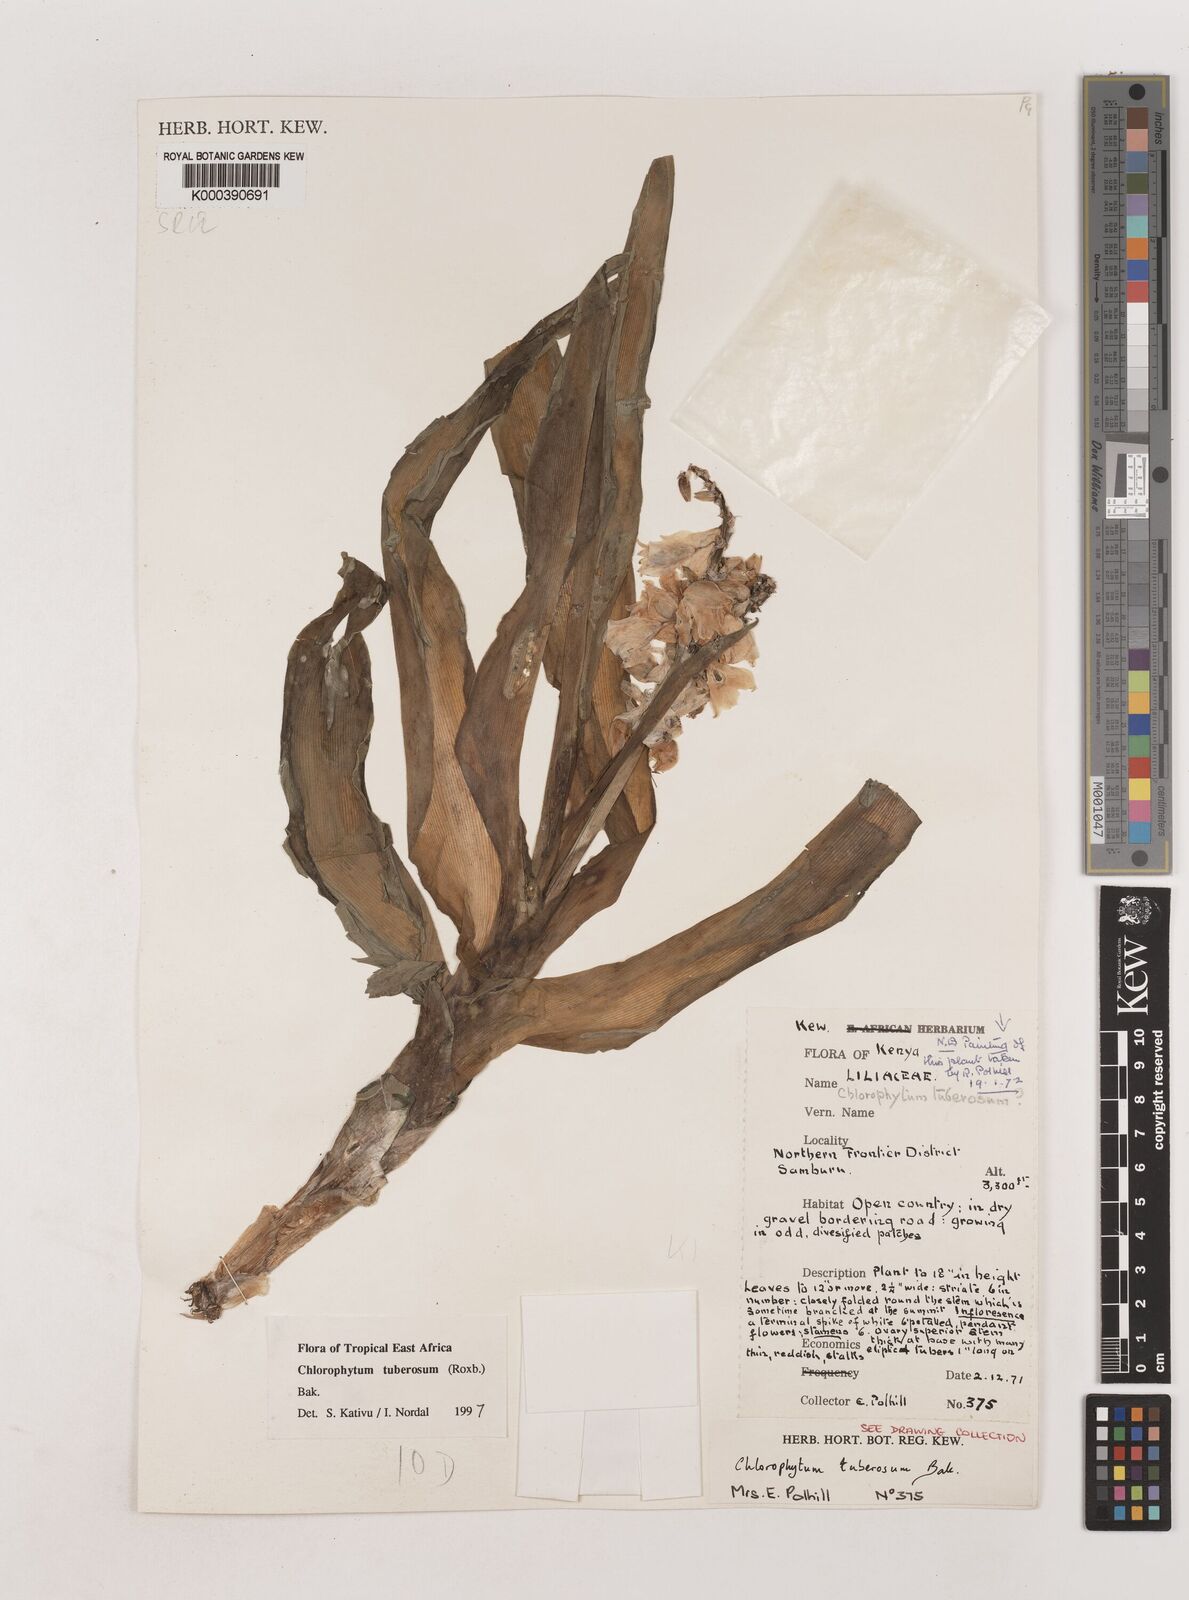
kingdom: Plantae
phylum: Tracheophyta
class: Liliopsida
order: Asparagales
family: Asparagaceae
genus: Chlorophytum
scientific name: Chlorophytum tuberosum
